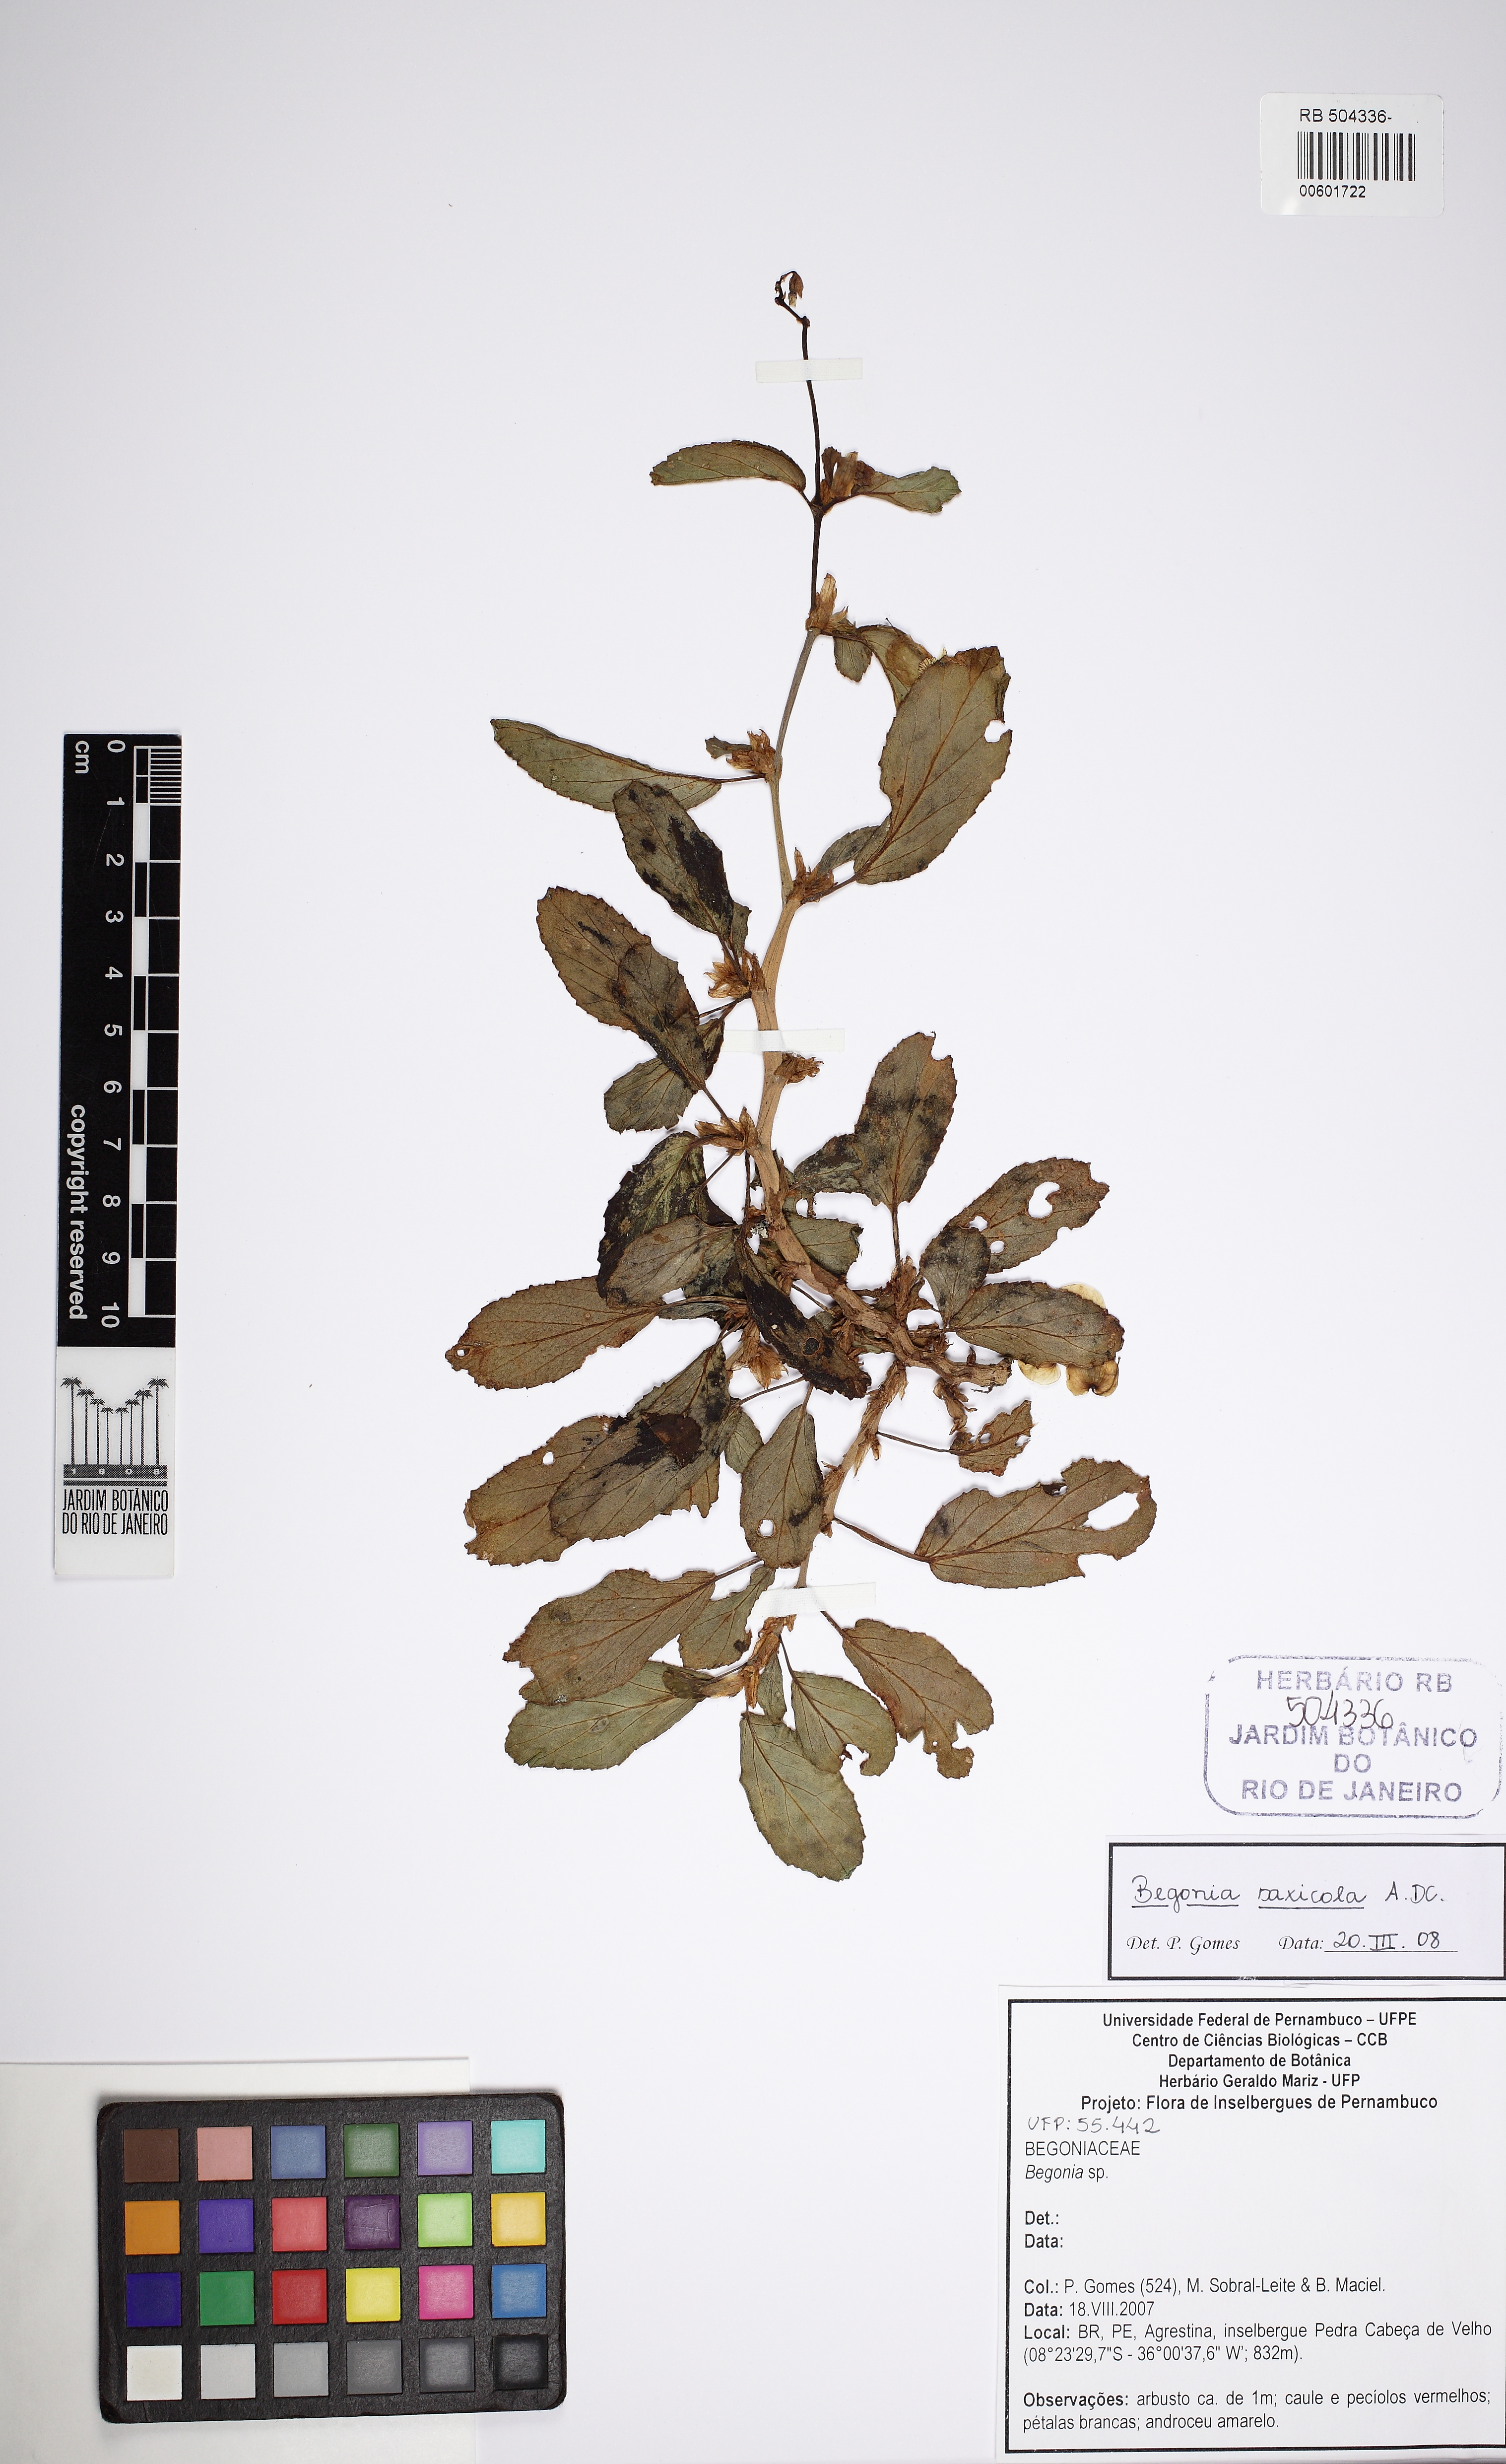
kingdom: Plantae
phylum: Tracheophyta
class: Magnoliopsida
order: Cucurbitales
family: Begoniaceae
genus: Begonia
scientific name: Begonia saxicola
